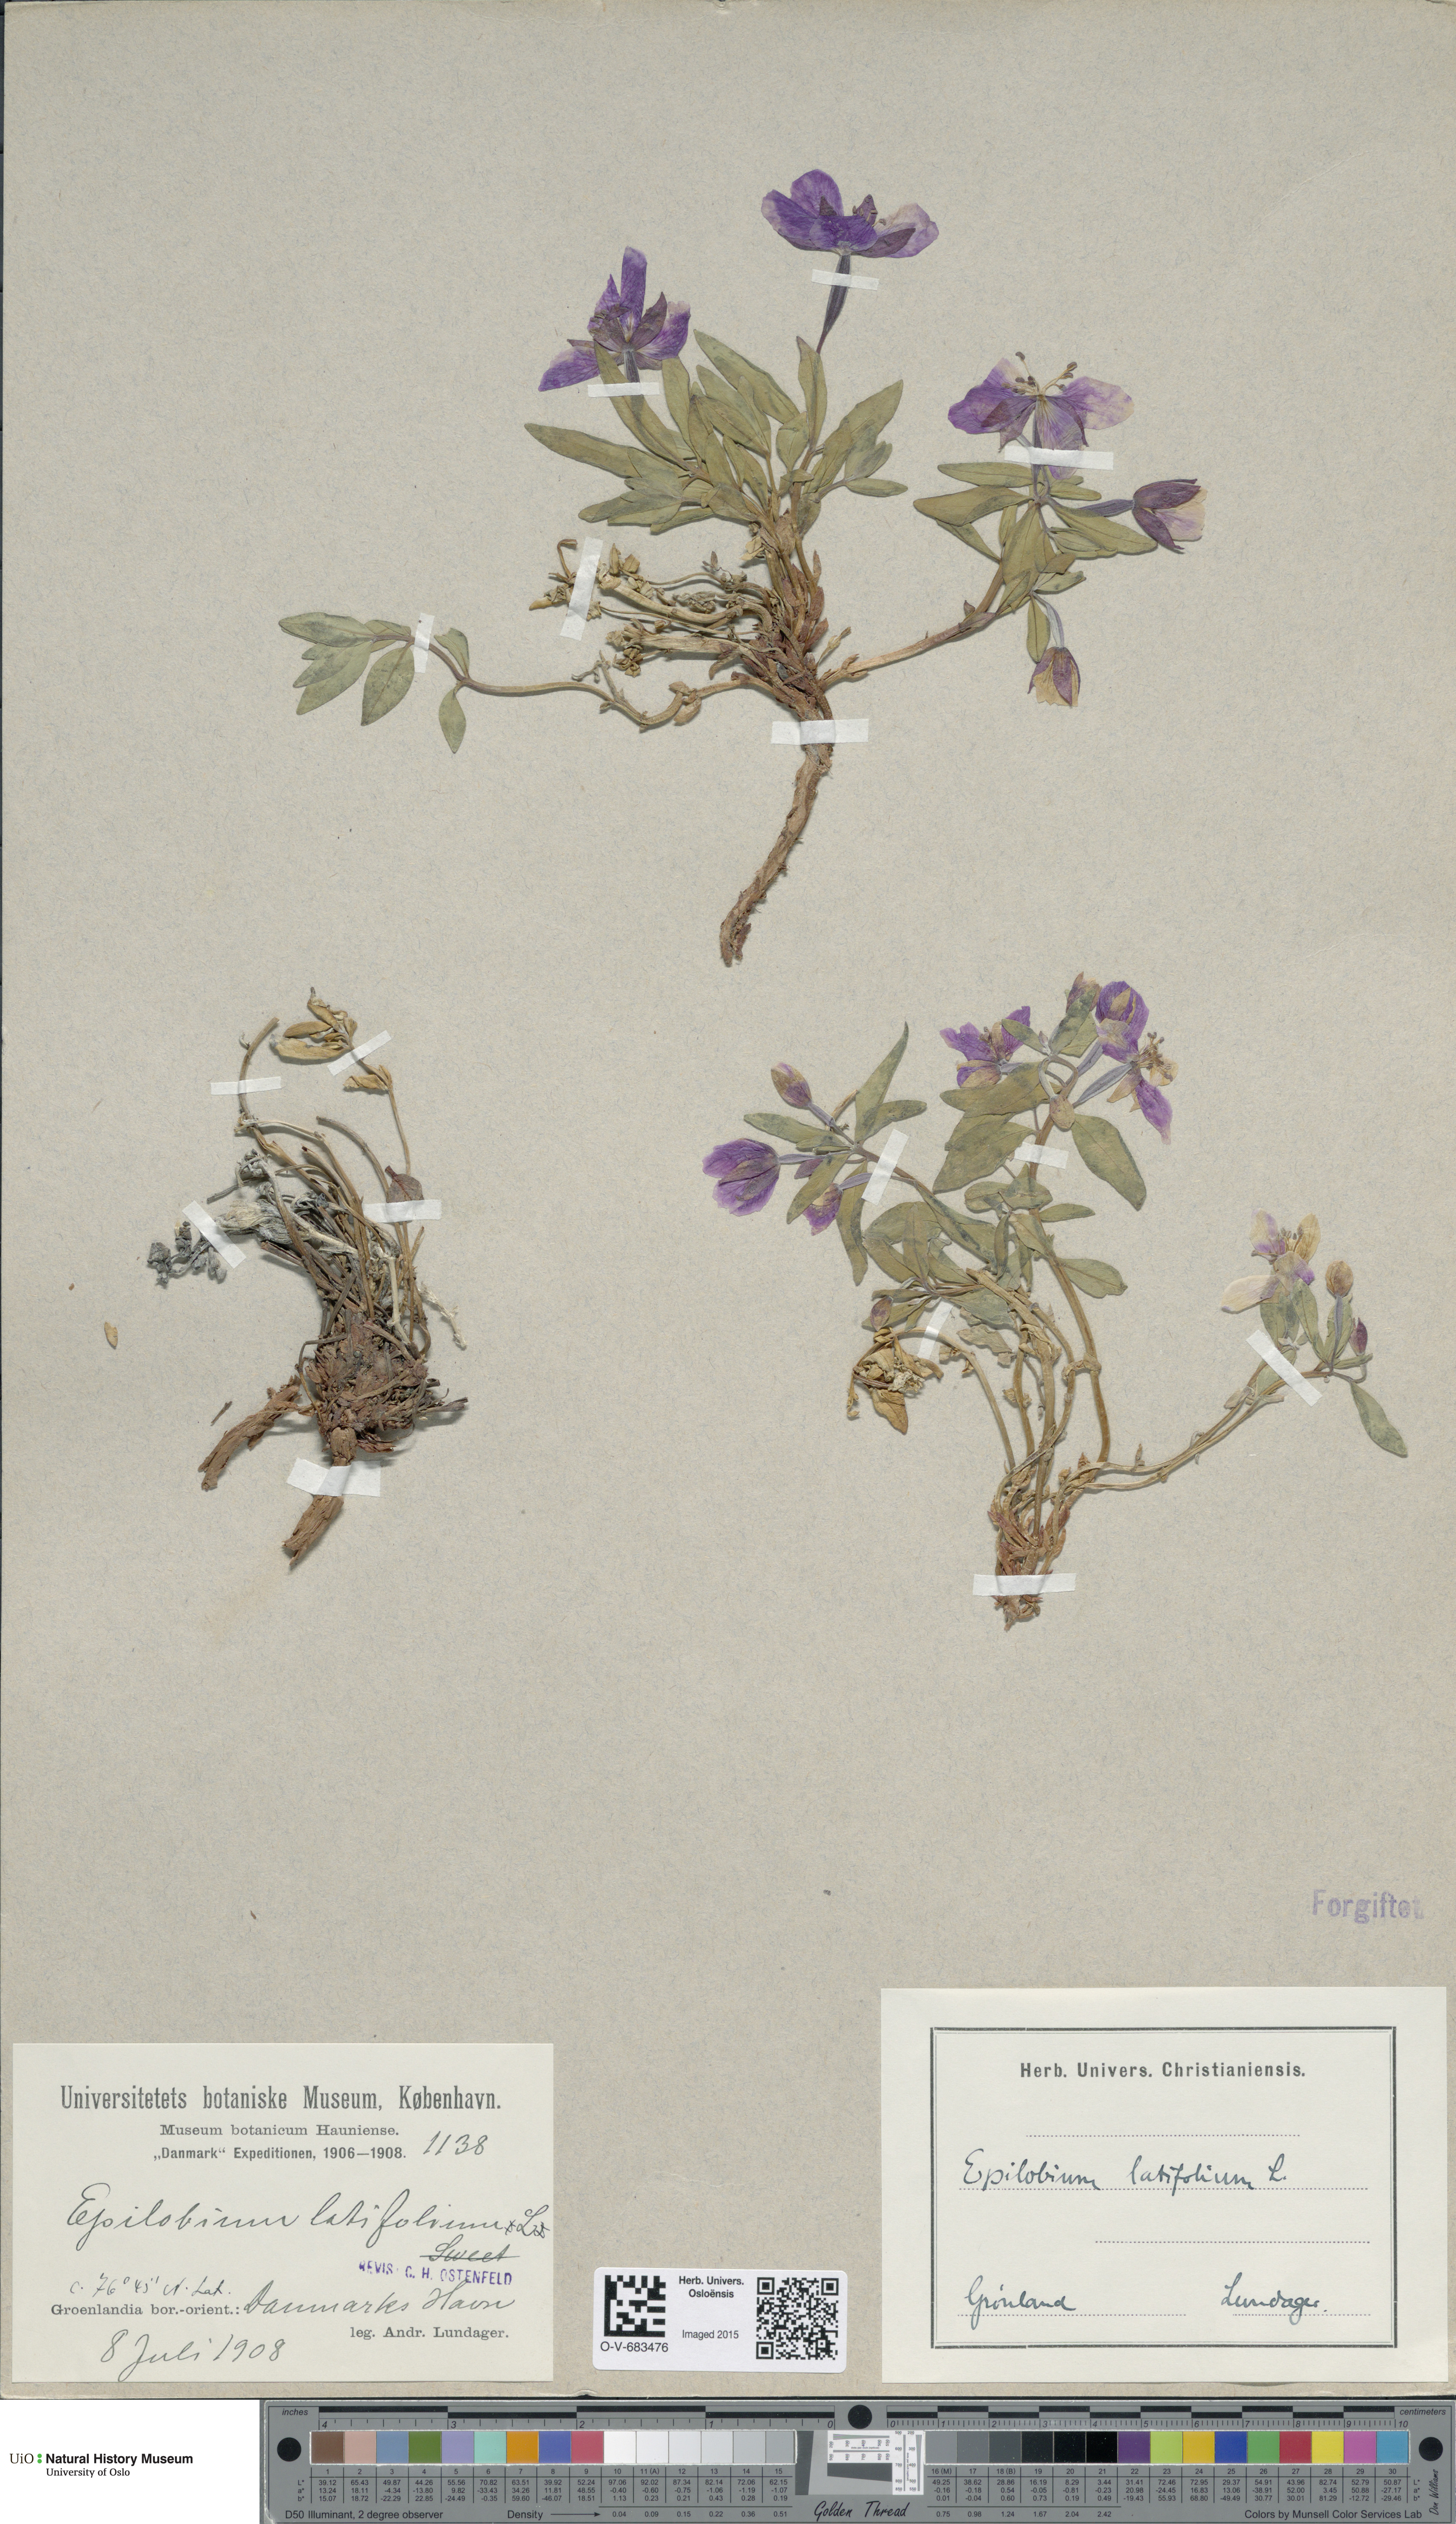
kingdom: Plantae
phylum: Tracheophyta
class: Magnoliopsida
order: Myrtales
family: Onagraceae
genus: Chamaenerion
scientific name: Chamaenerion latifolium
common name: Dwarf fireweed
